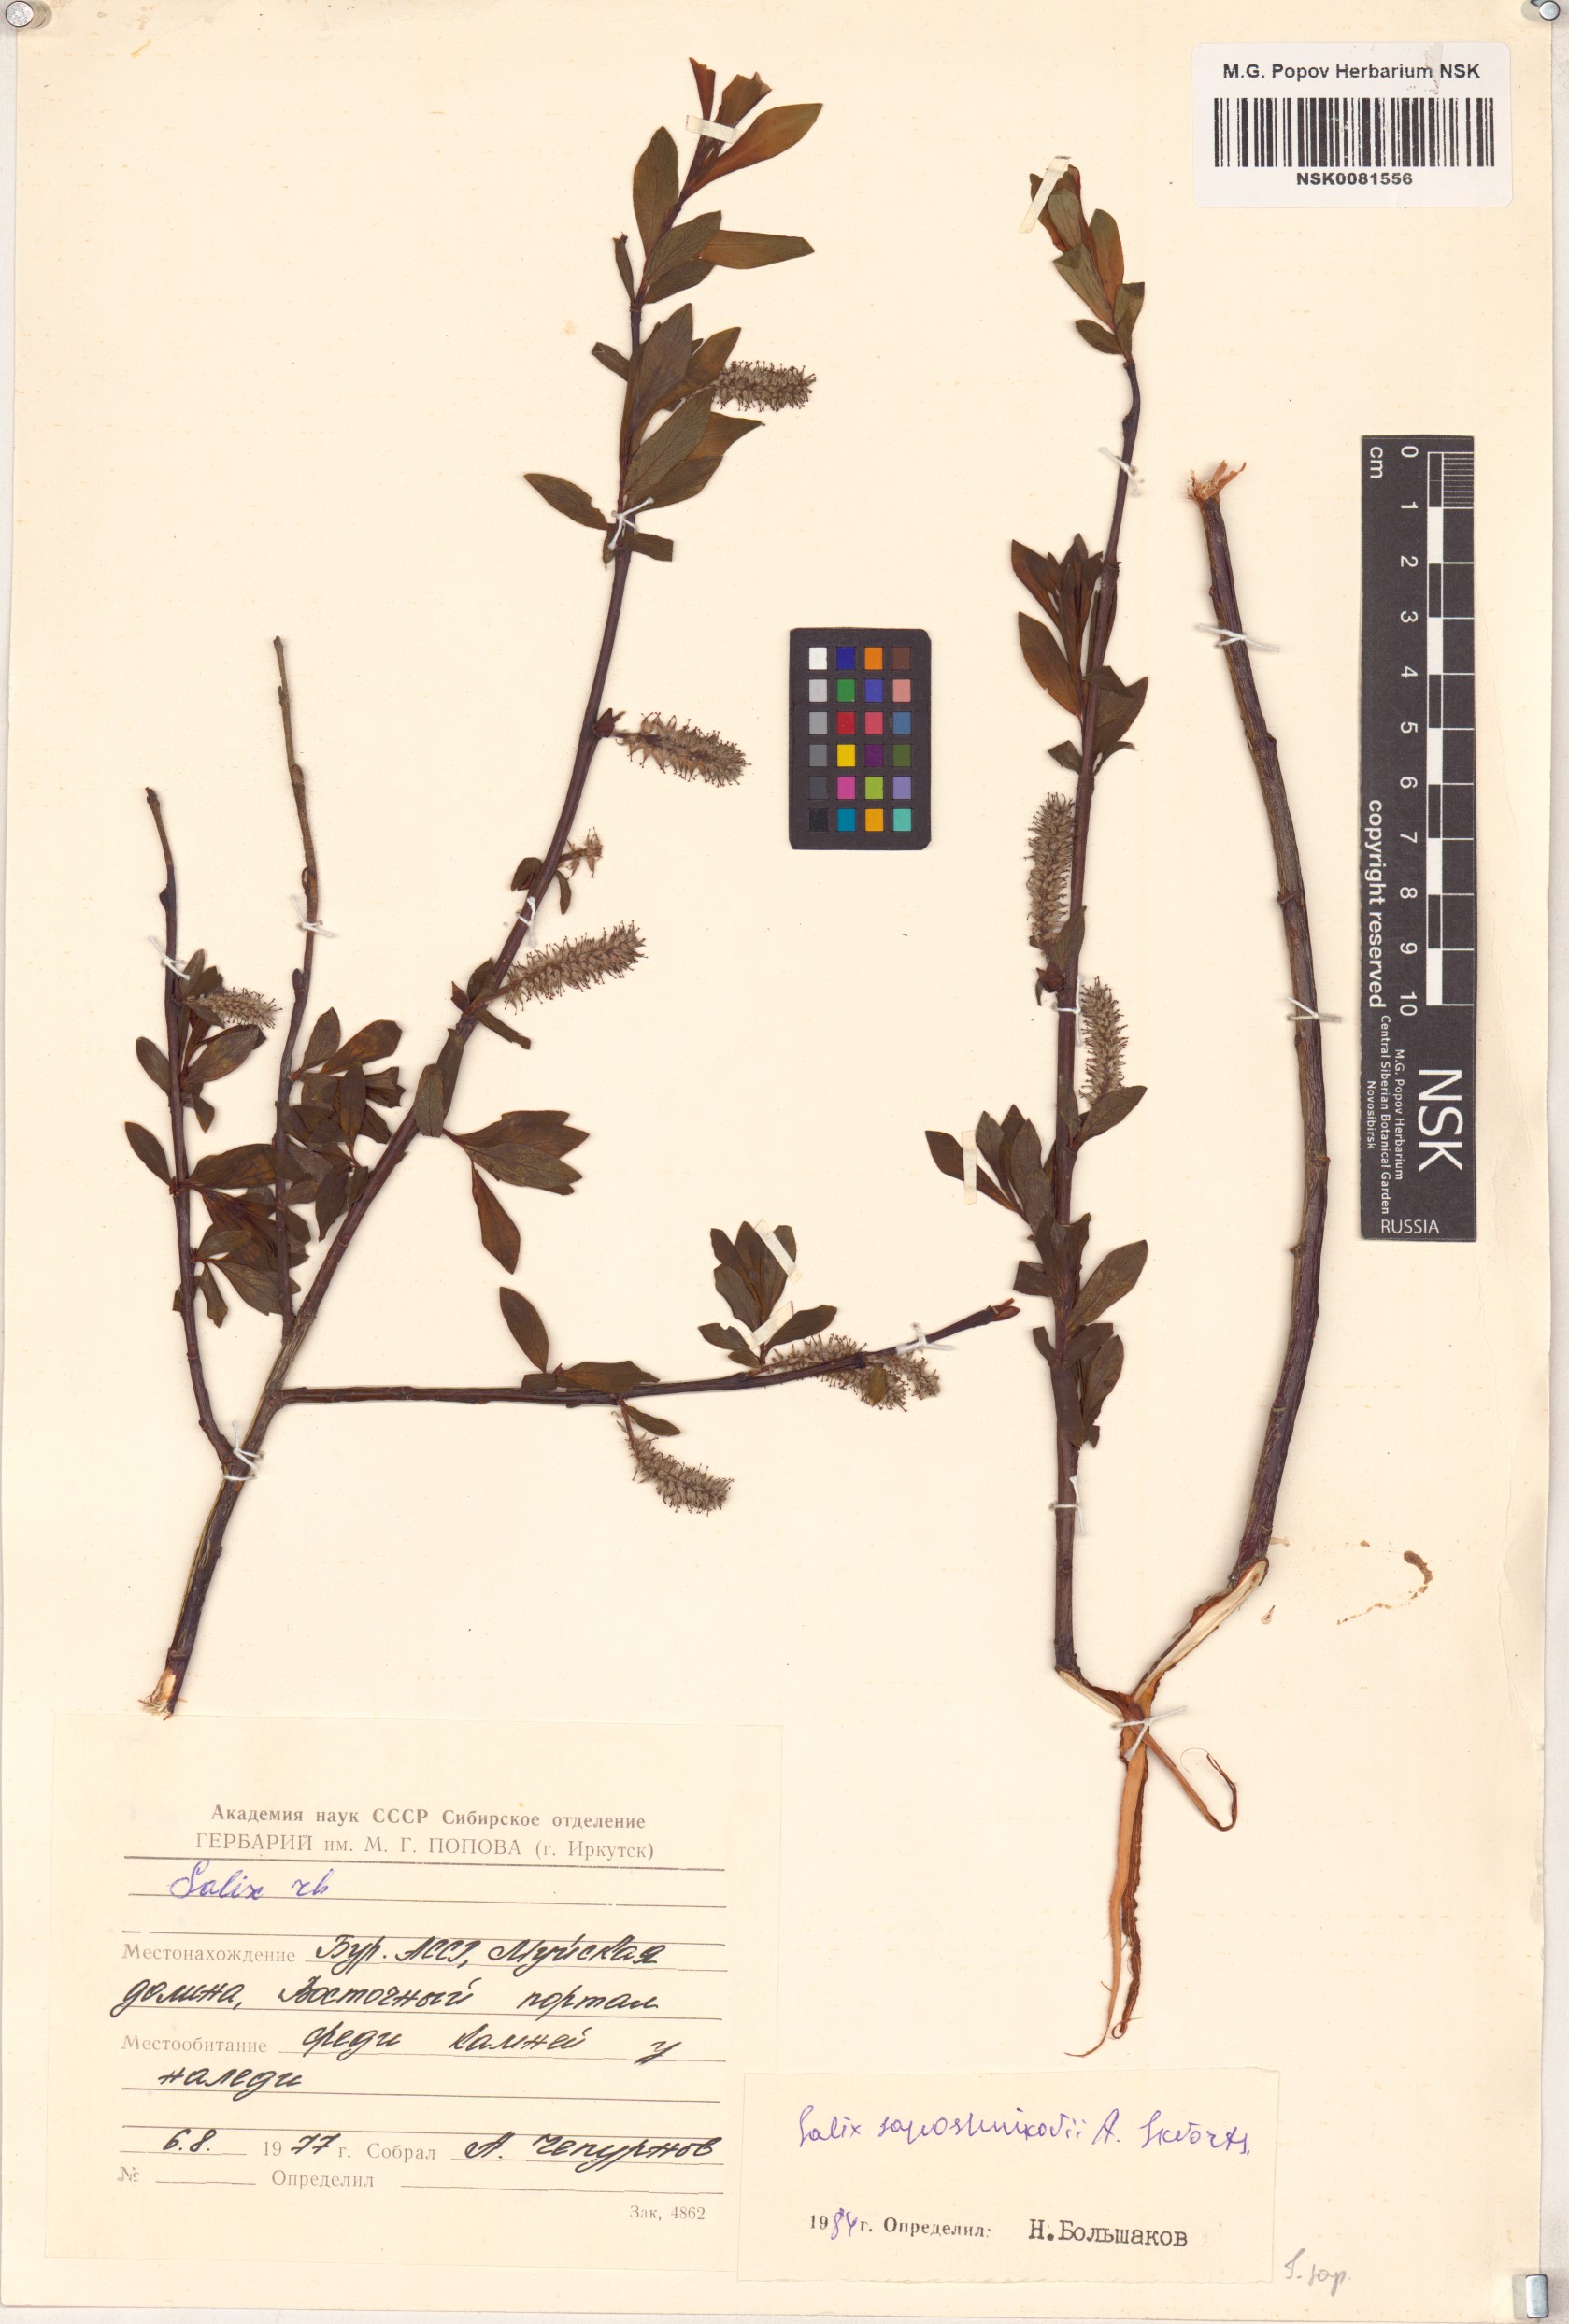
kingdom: Plantae
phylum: Tracheophyta
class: Magnoliopsida
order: Malpighiales
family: Salicaceae
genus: Salix
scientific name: Salix saposhnikovii
